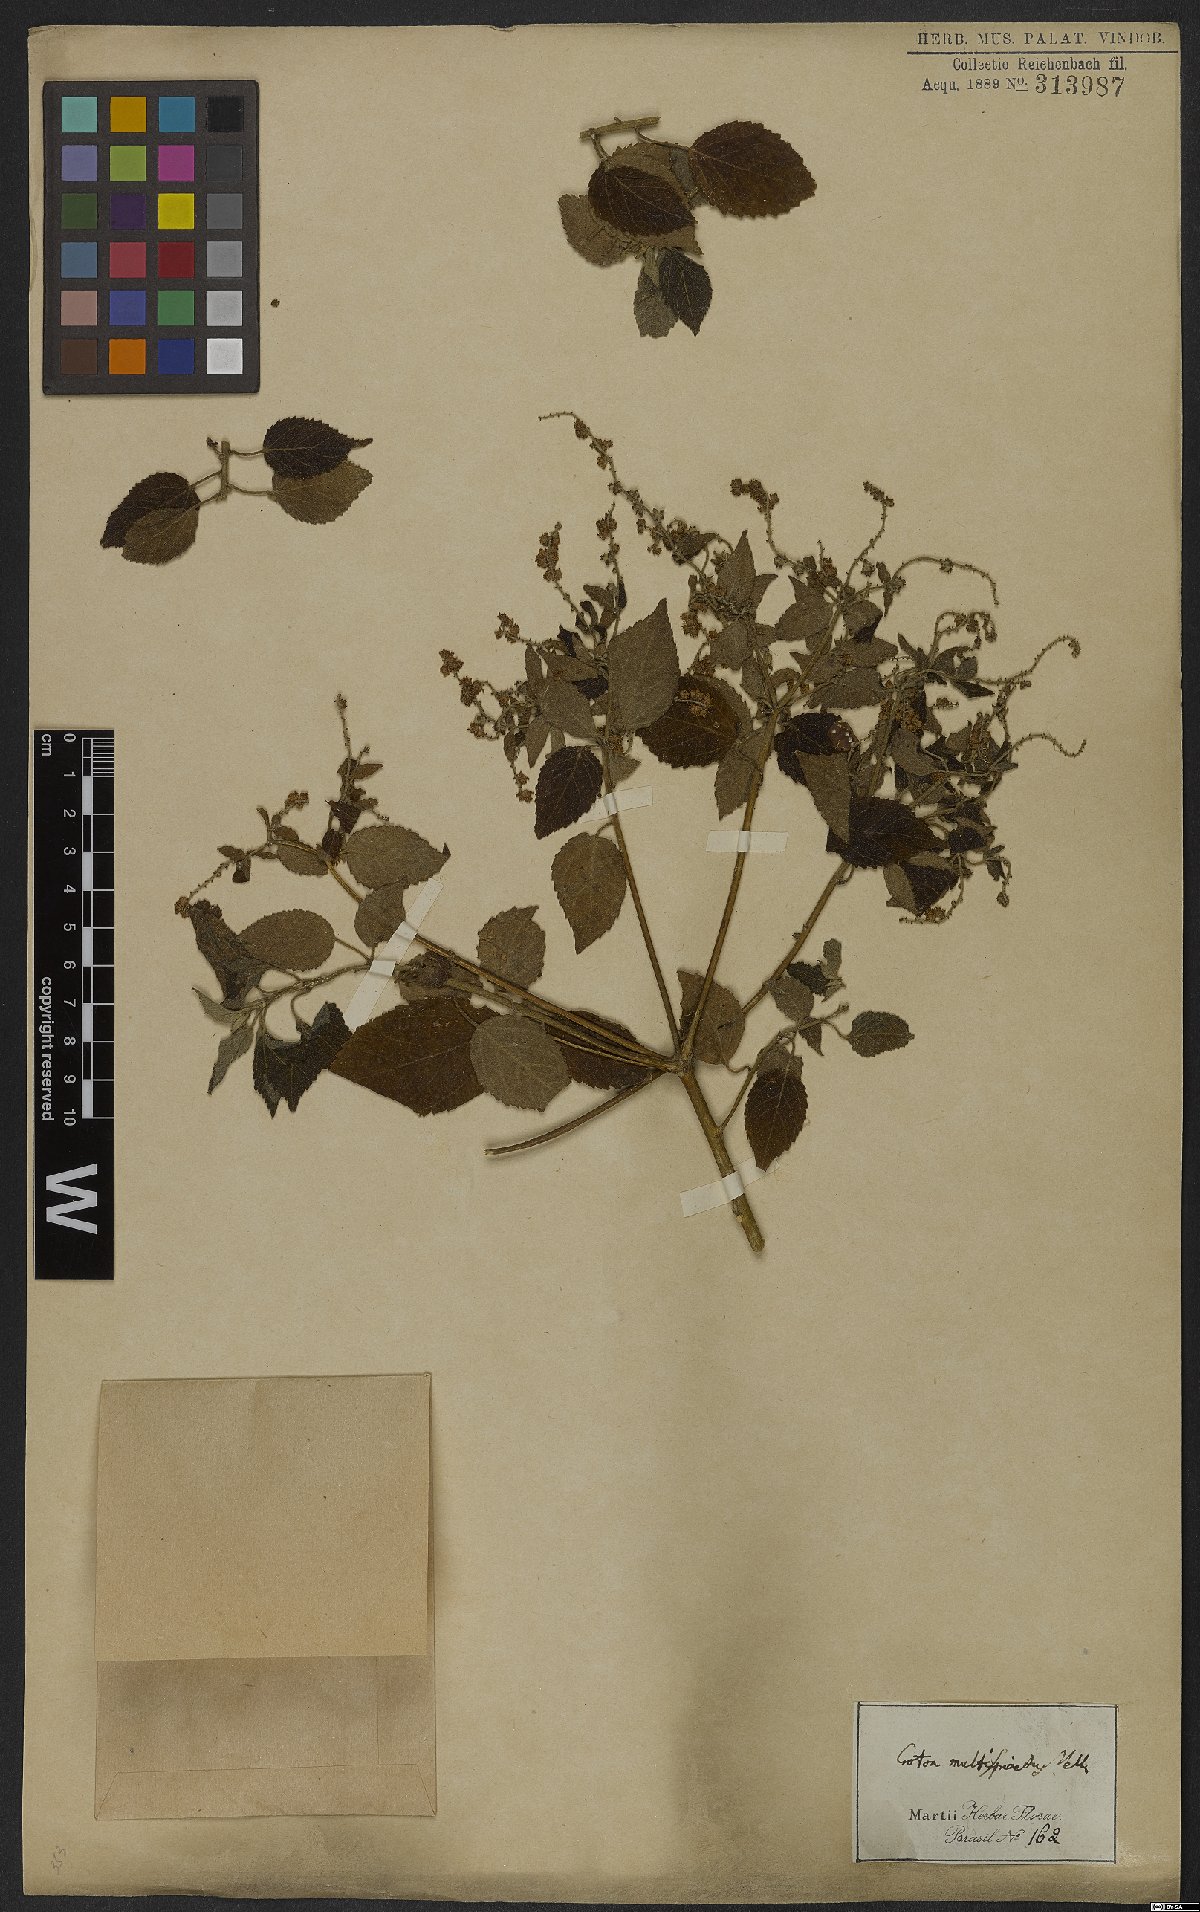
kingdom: Plantae
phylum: Tracheophyta
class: Magnoliopsida
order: Malpighiales
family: Euphorbiaceae
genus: Croton
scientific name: Croton urticifolius
